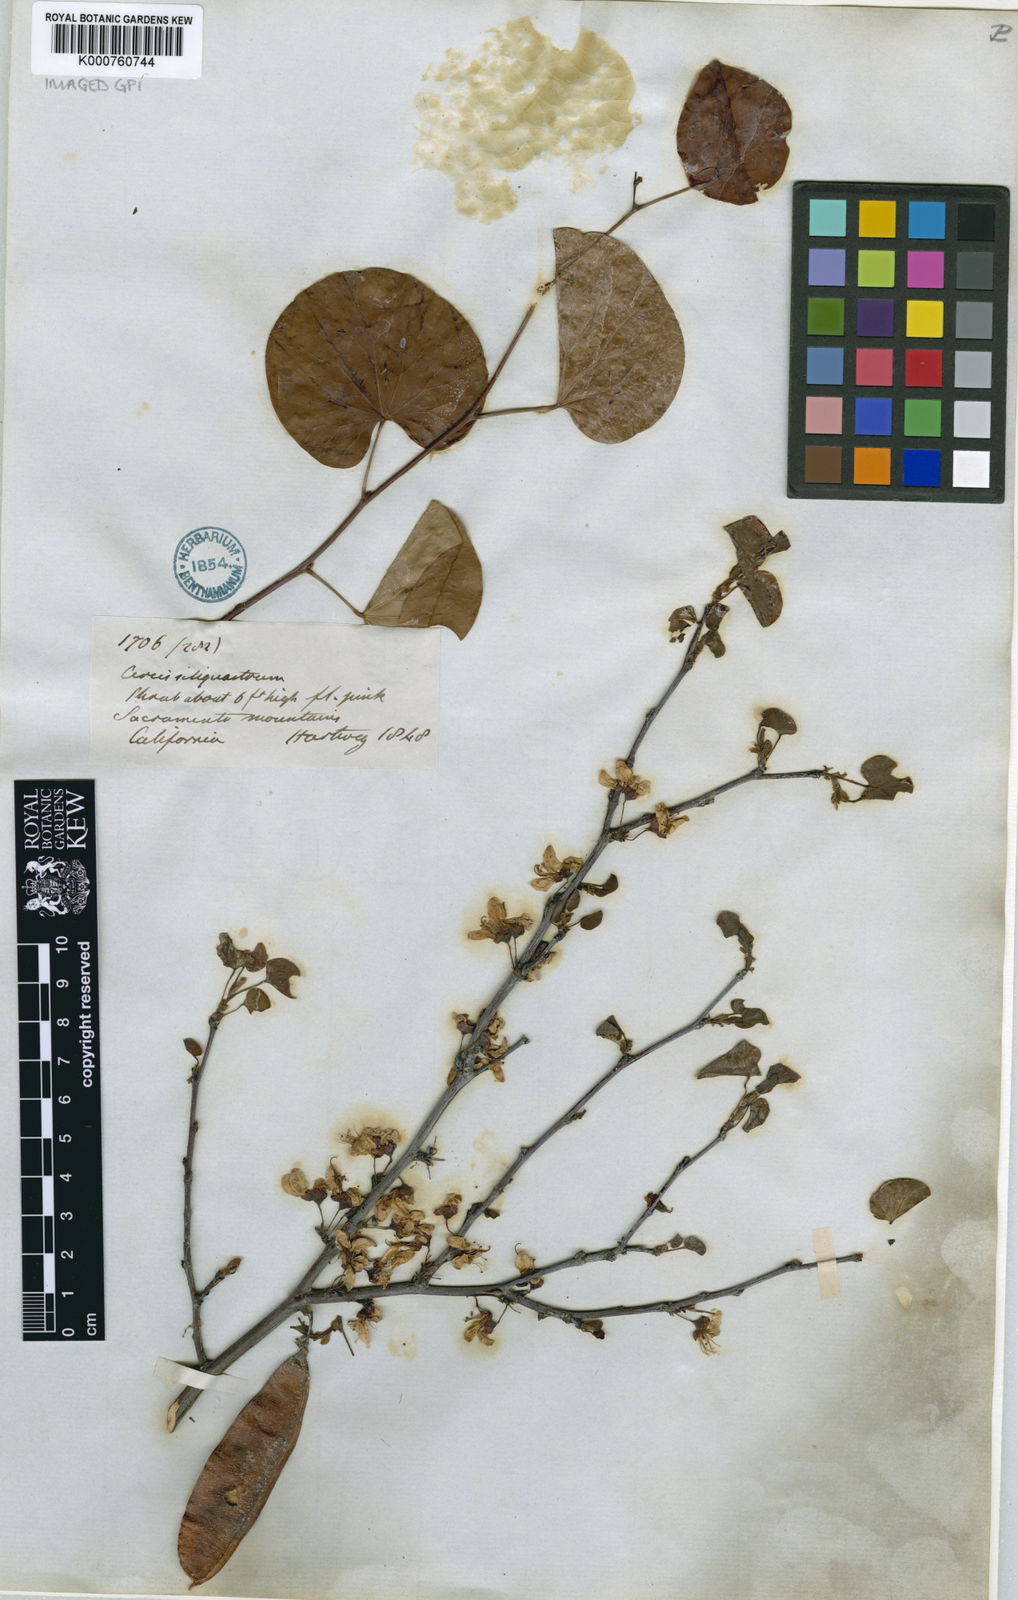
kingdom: Plantae
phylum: Tracheophyta
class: Magnoliopsida
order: Fabales
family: Fabaceae
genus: Cercis
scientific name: Cercis occidentalis
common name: California redbud
